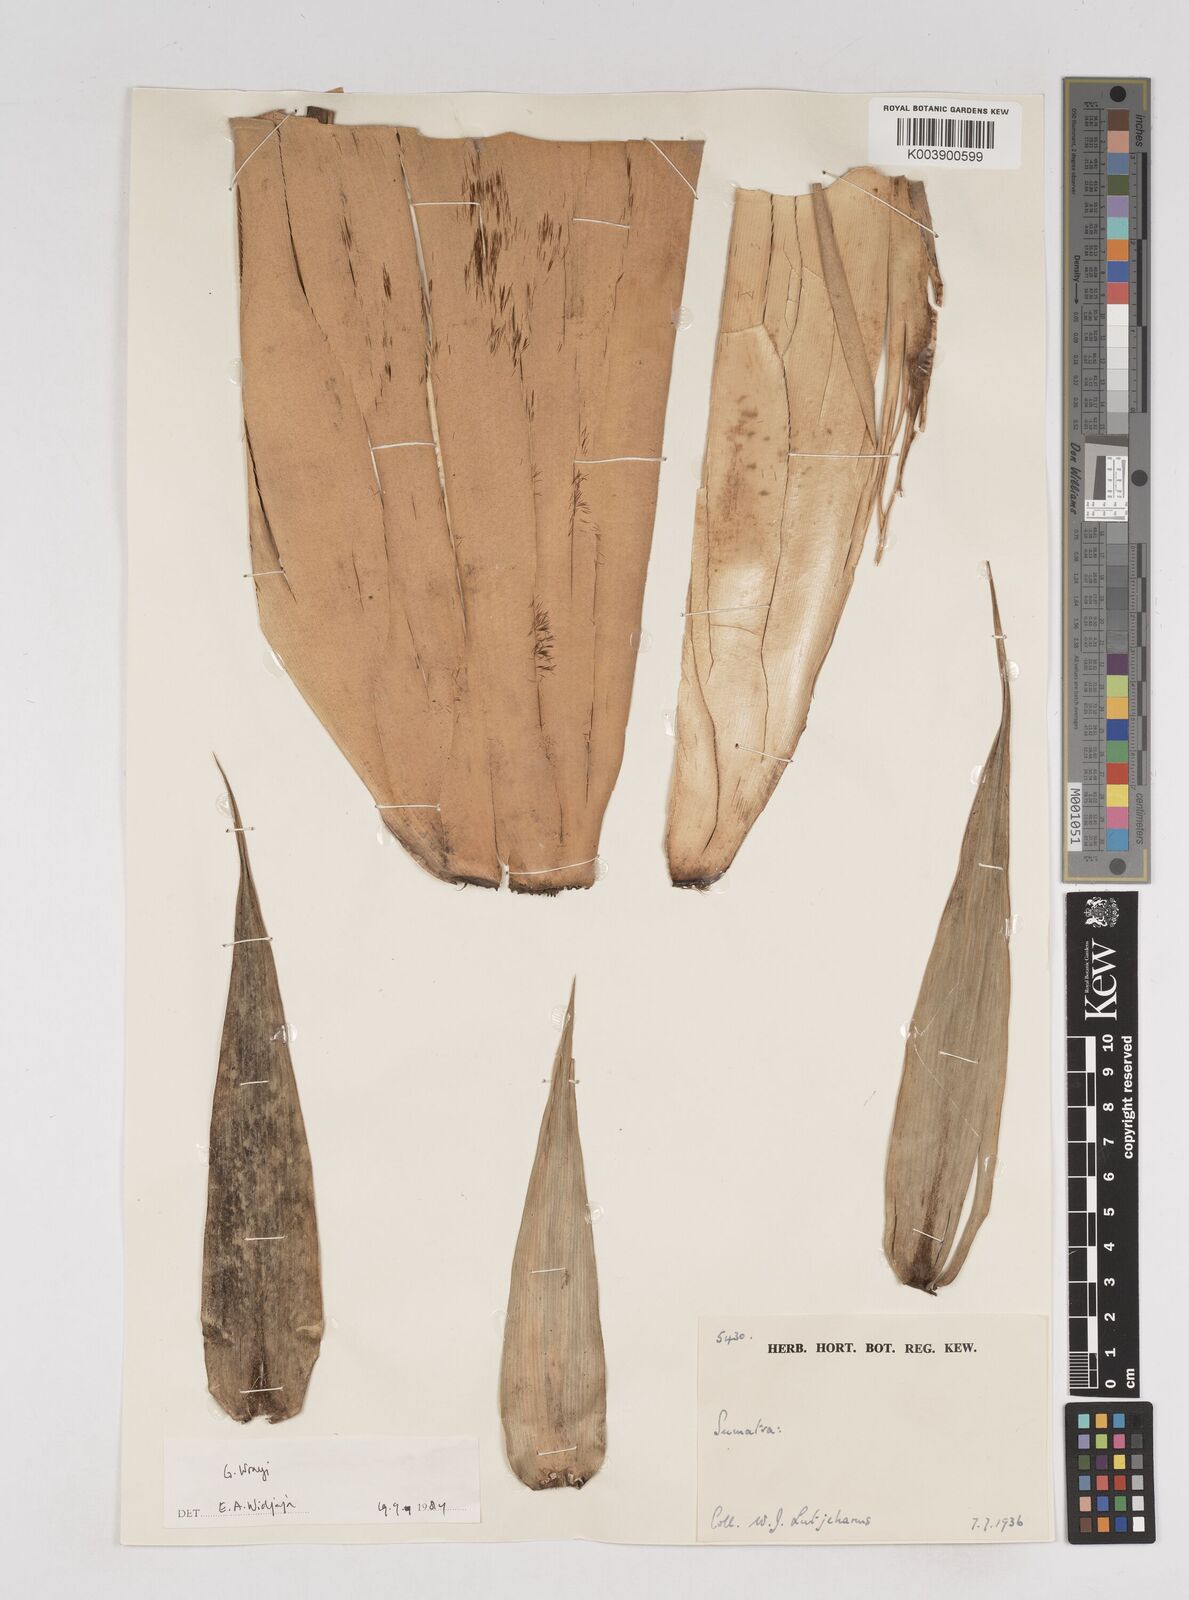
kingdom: Plantae
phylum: Tracheophyta
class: Liliopsida
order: Poales
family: Poaceae
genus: Gigantochloa
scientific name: Gigantochloa wrayi
